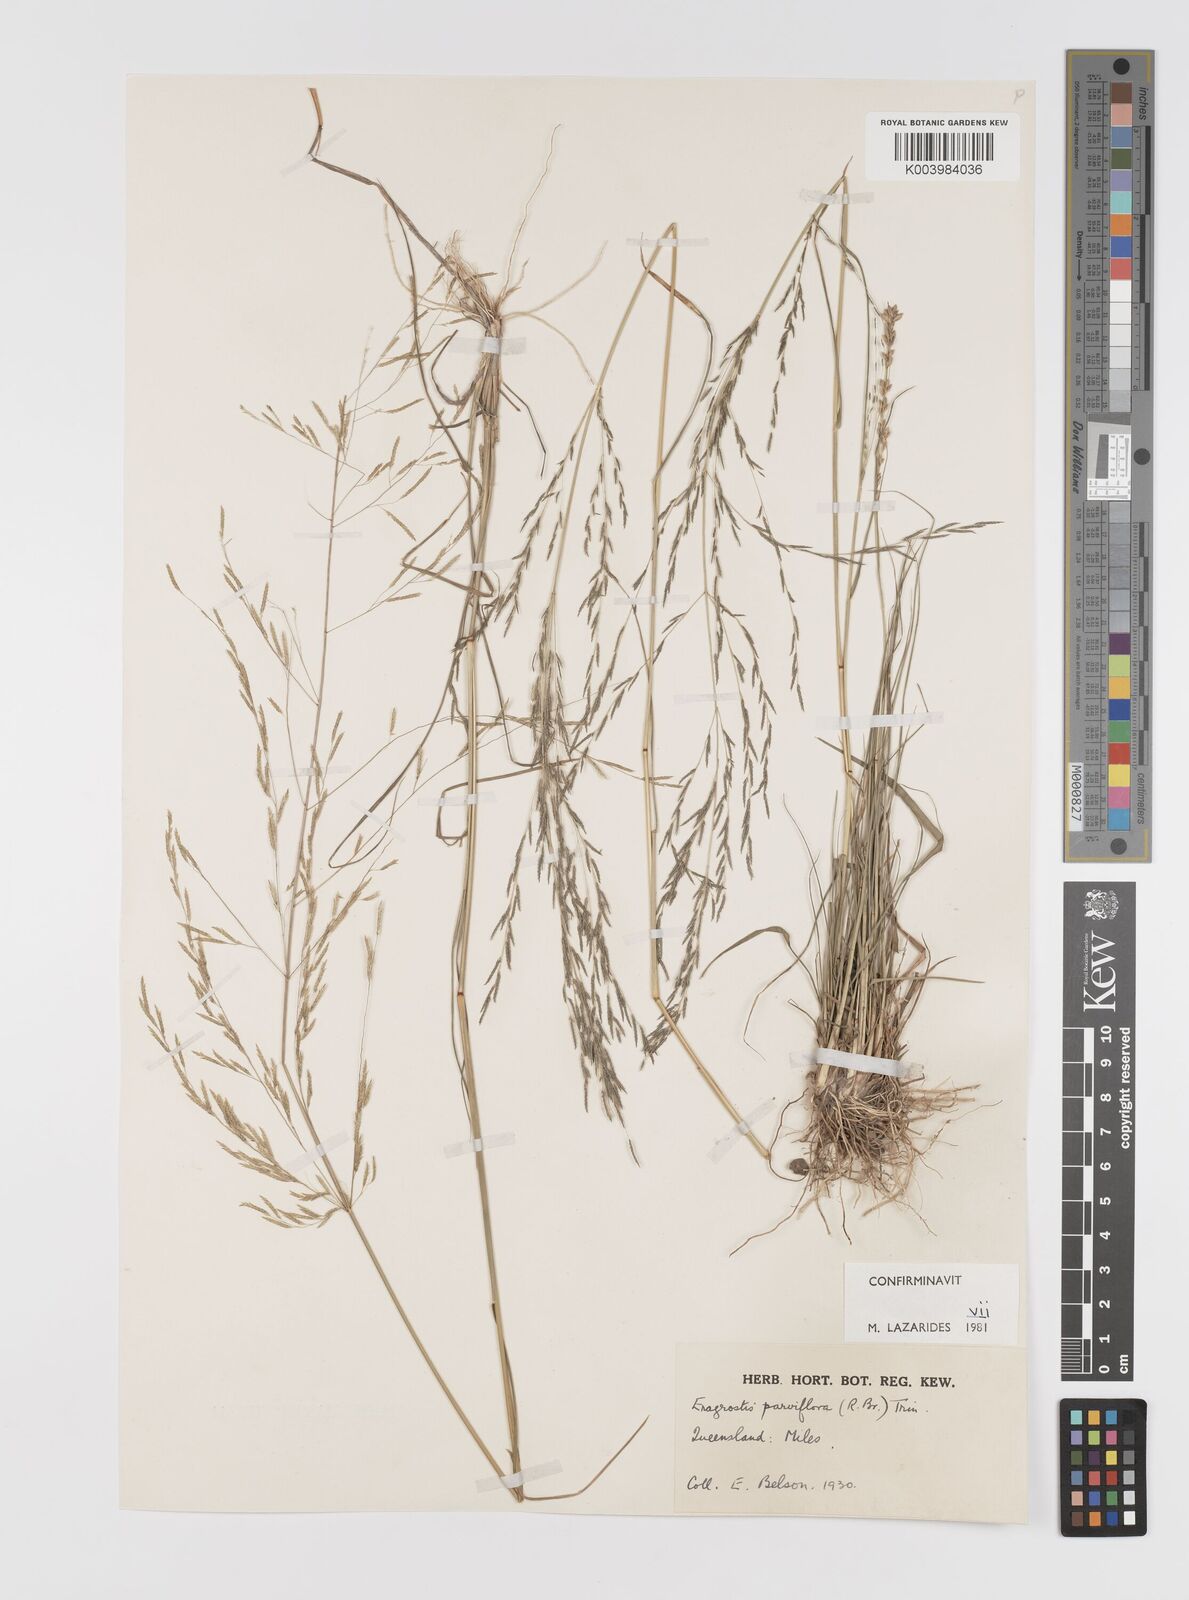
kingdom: Plantae
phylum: Tracheophyta
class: Liliopsida
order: Poales
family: Poaceae
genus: Eragrostis
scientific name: Eragrostis parviflora
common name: Weeping love-grass
